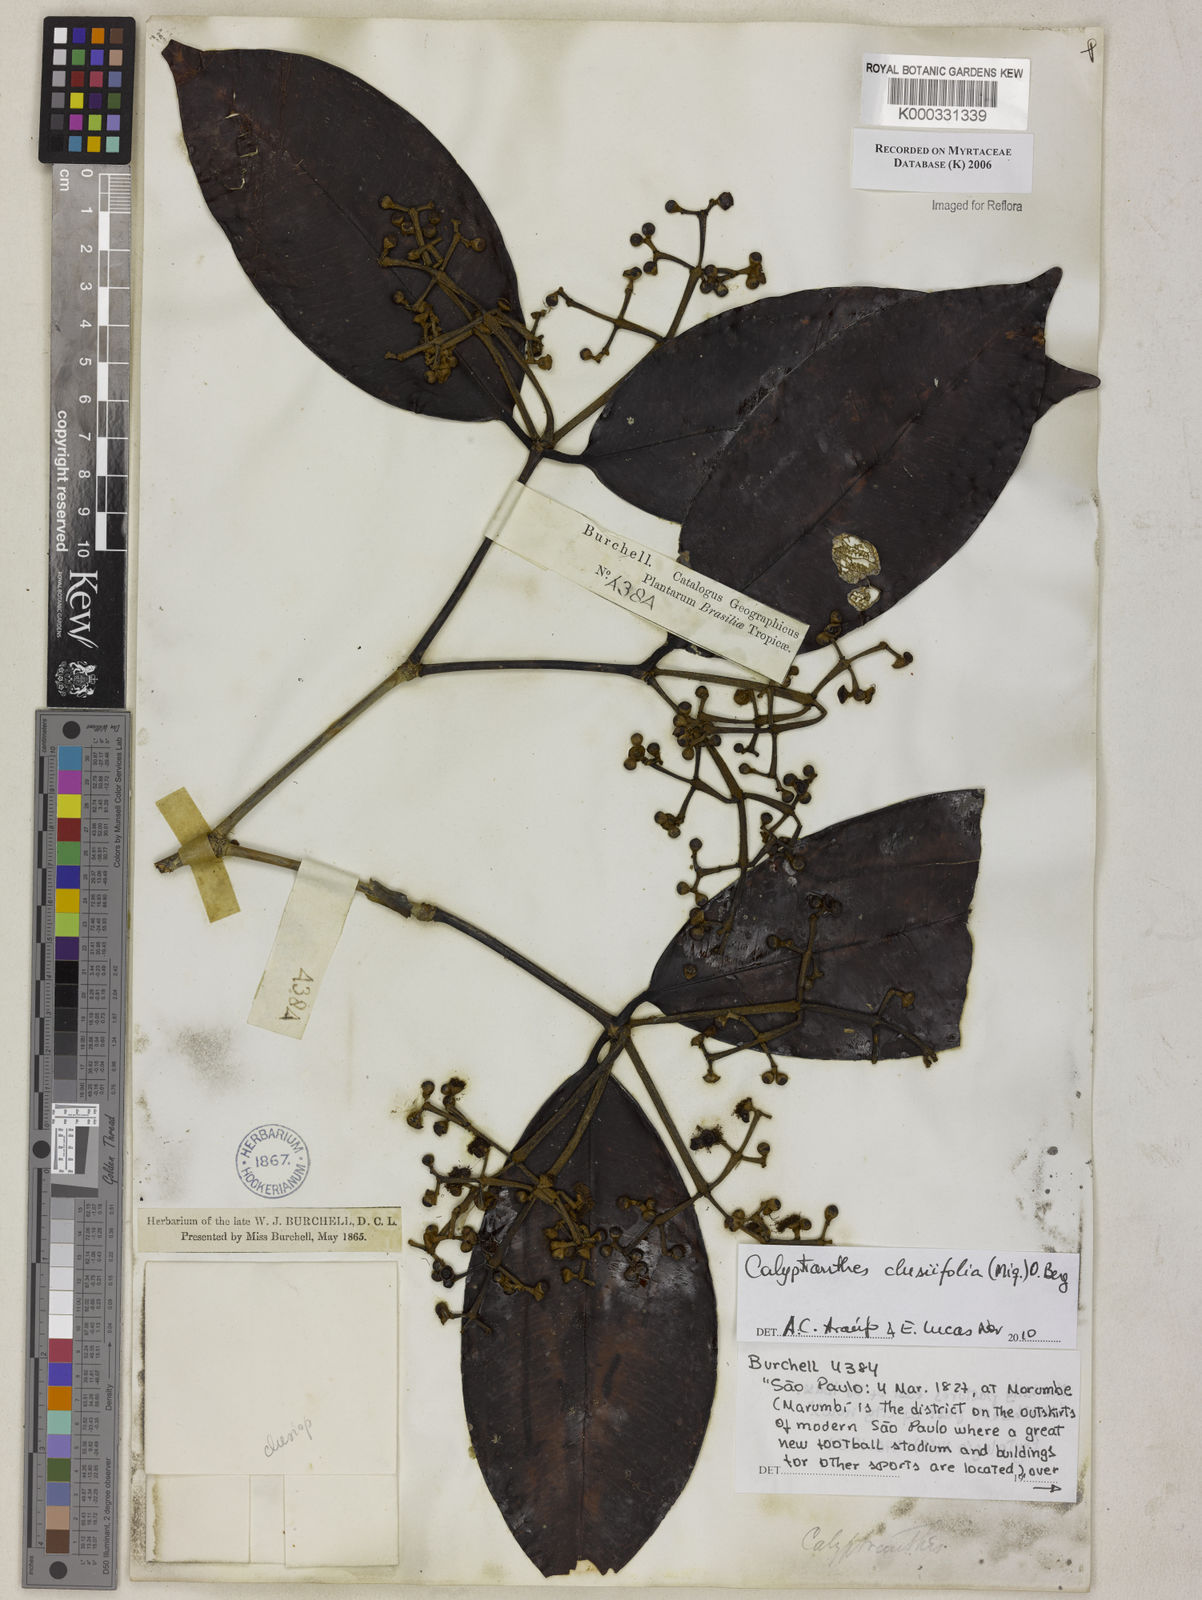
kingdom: Plantae
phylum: Tracheophyta
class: Magnoliopsida
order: Myrtales
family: Myrtaceae
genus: Calyptranthes
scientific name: Calyptranthes
